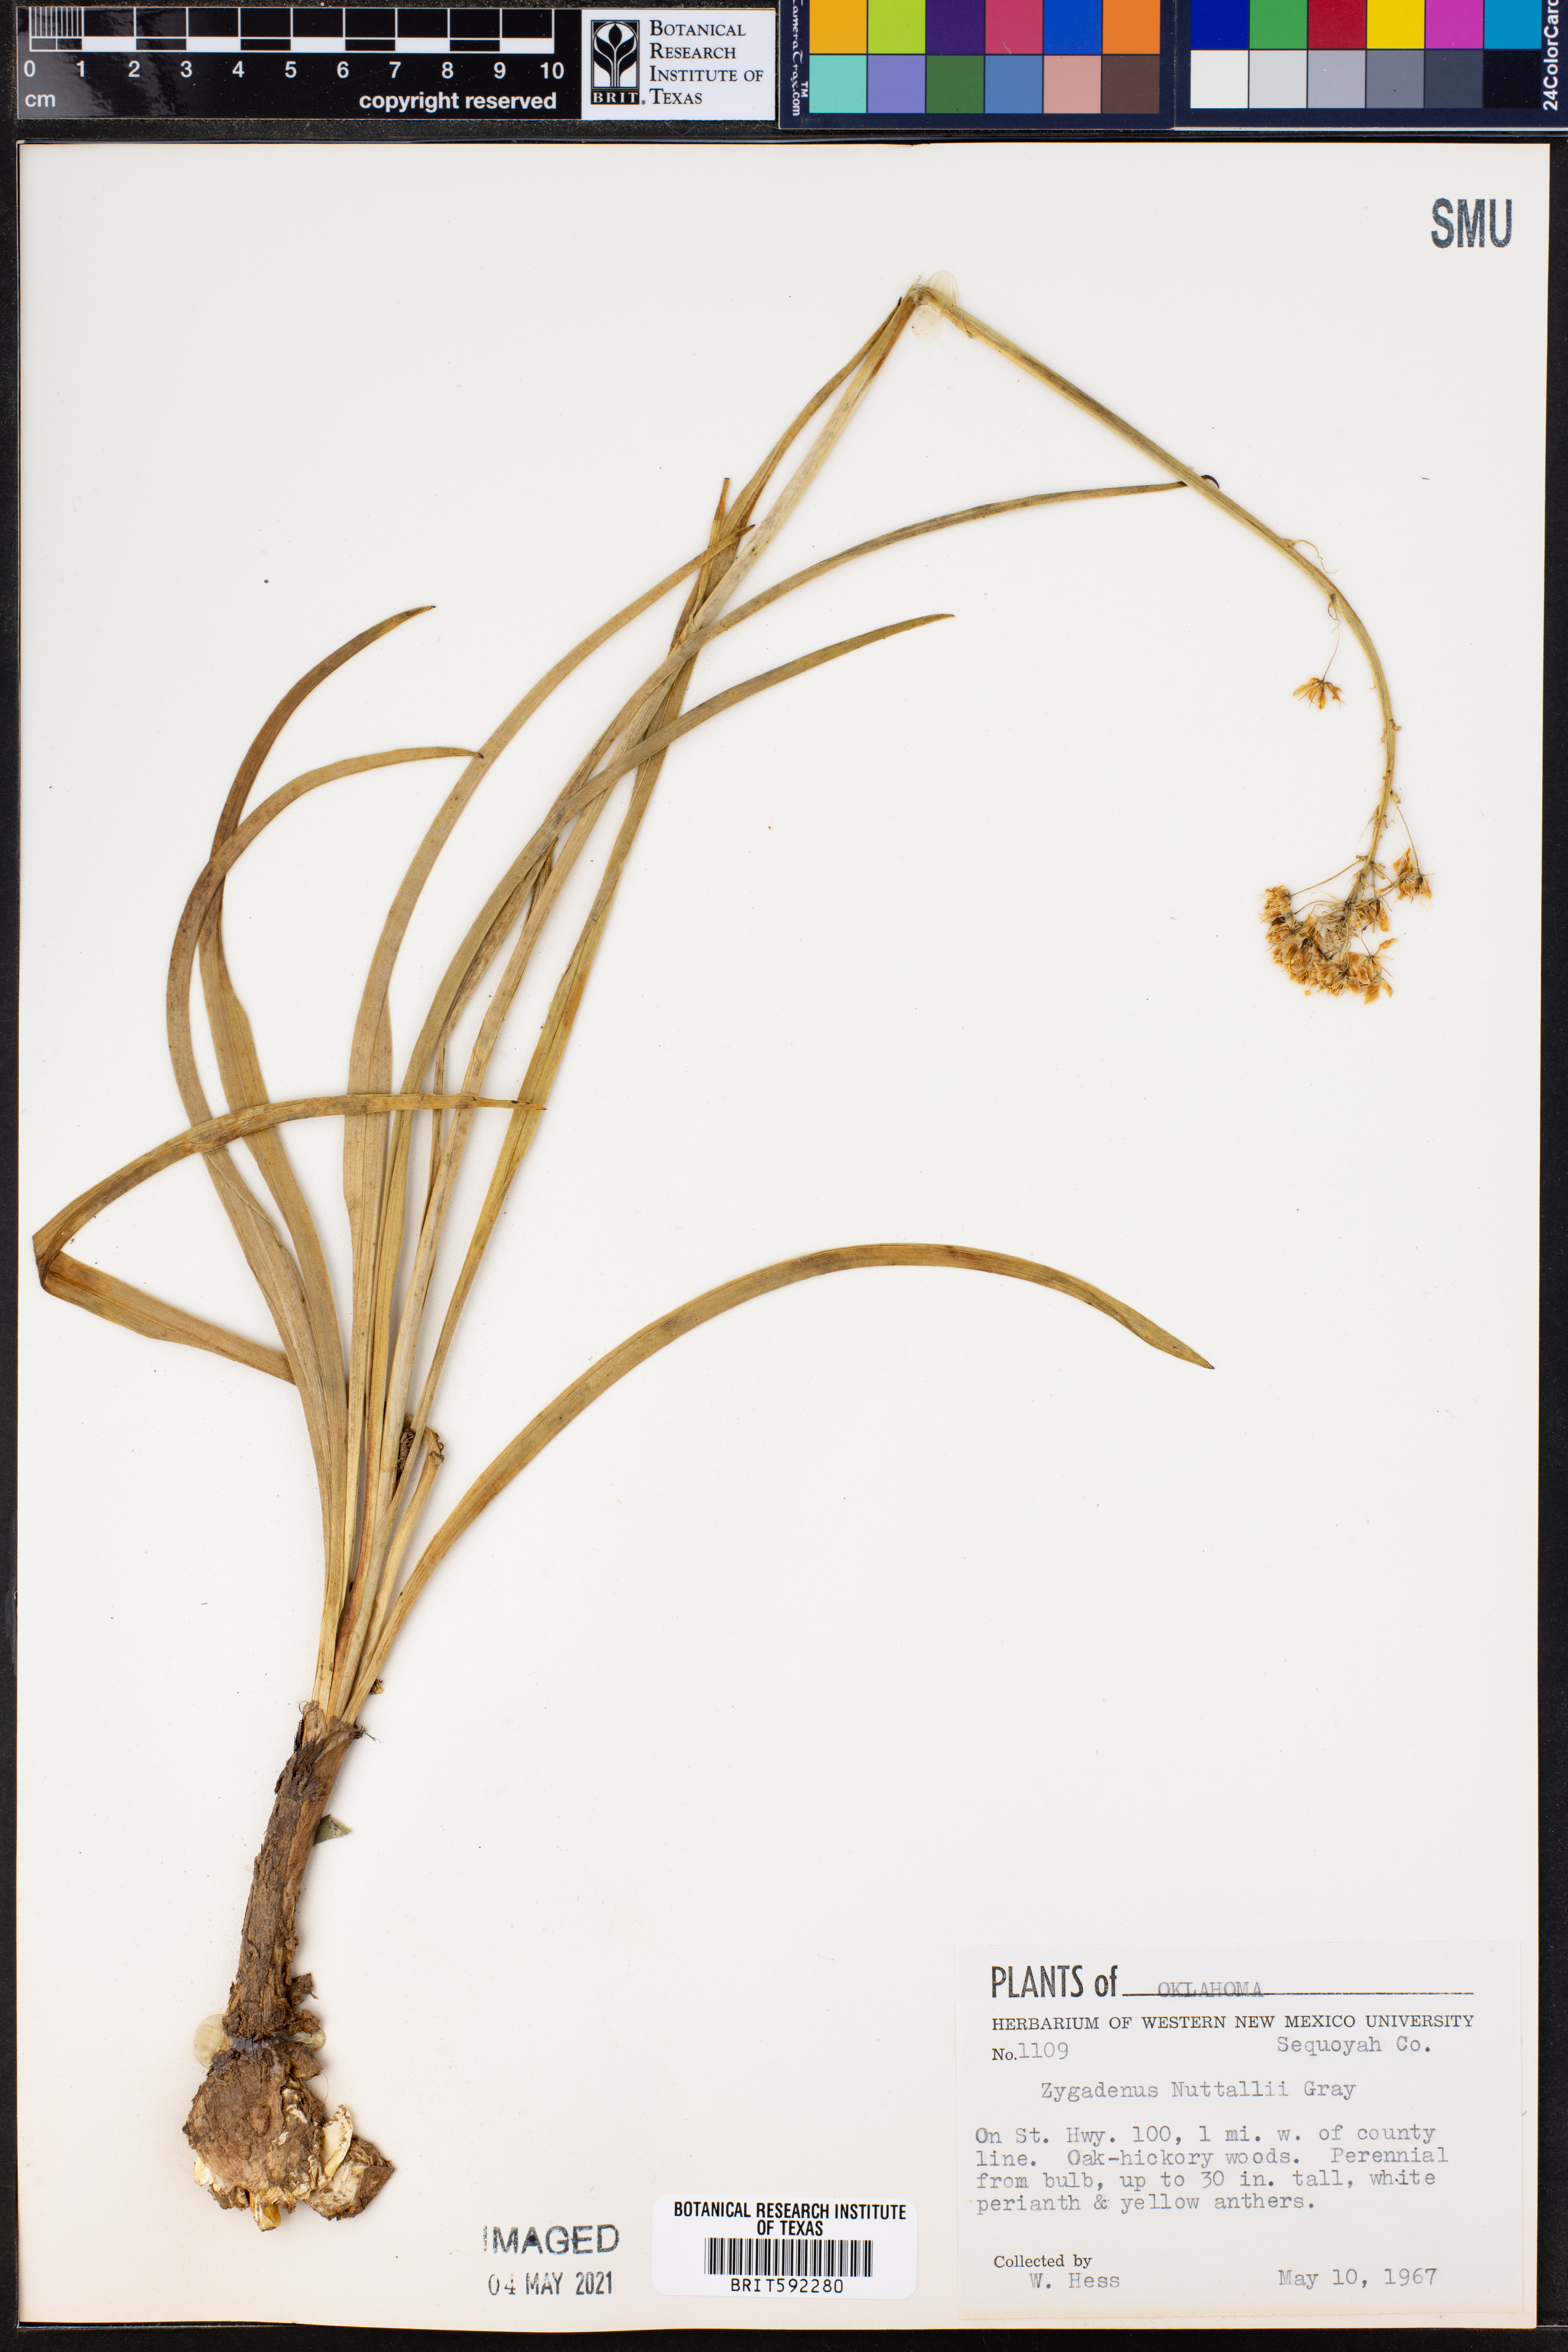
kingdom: Plantae
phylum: Tracheophyta
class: Liliopsida
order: Liliales
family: Melanthiaceae
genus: Toxicoscordion
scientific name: Toxicoscordion nuttallii
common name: Poison sego
